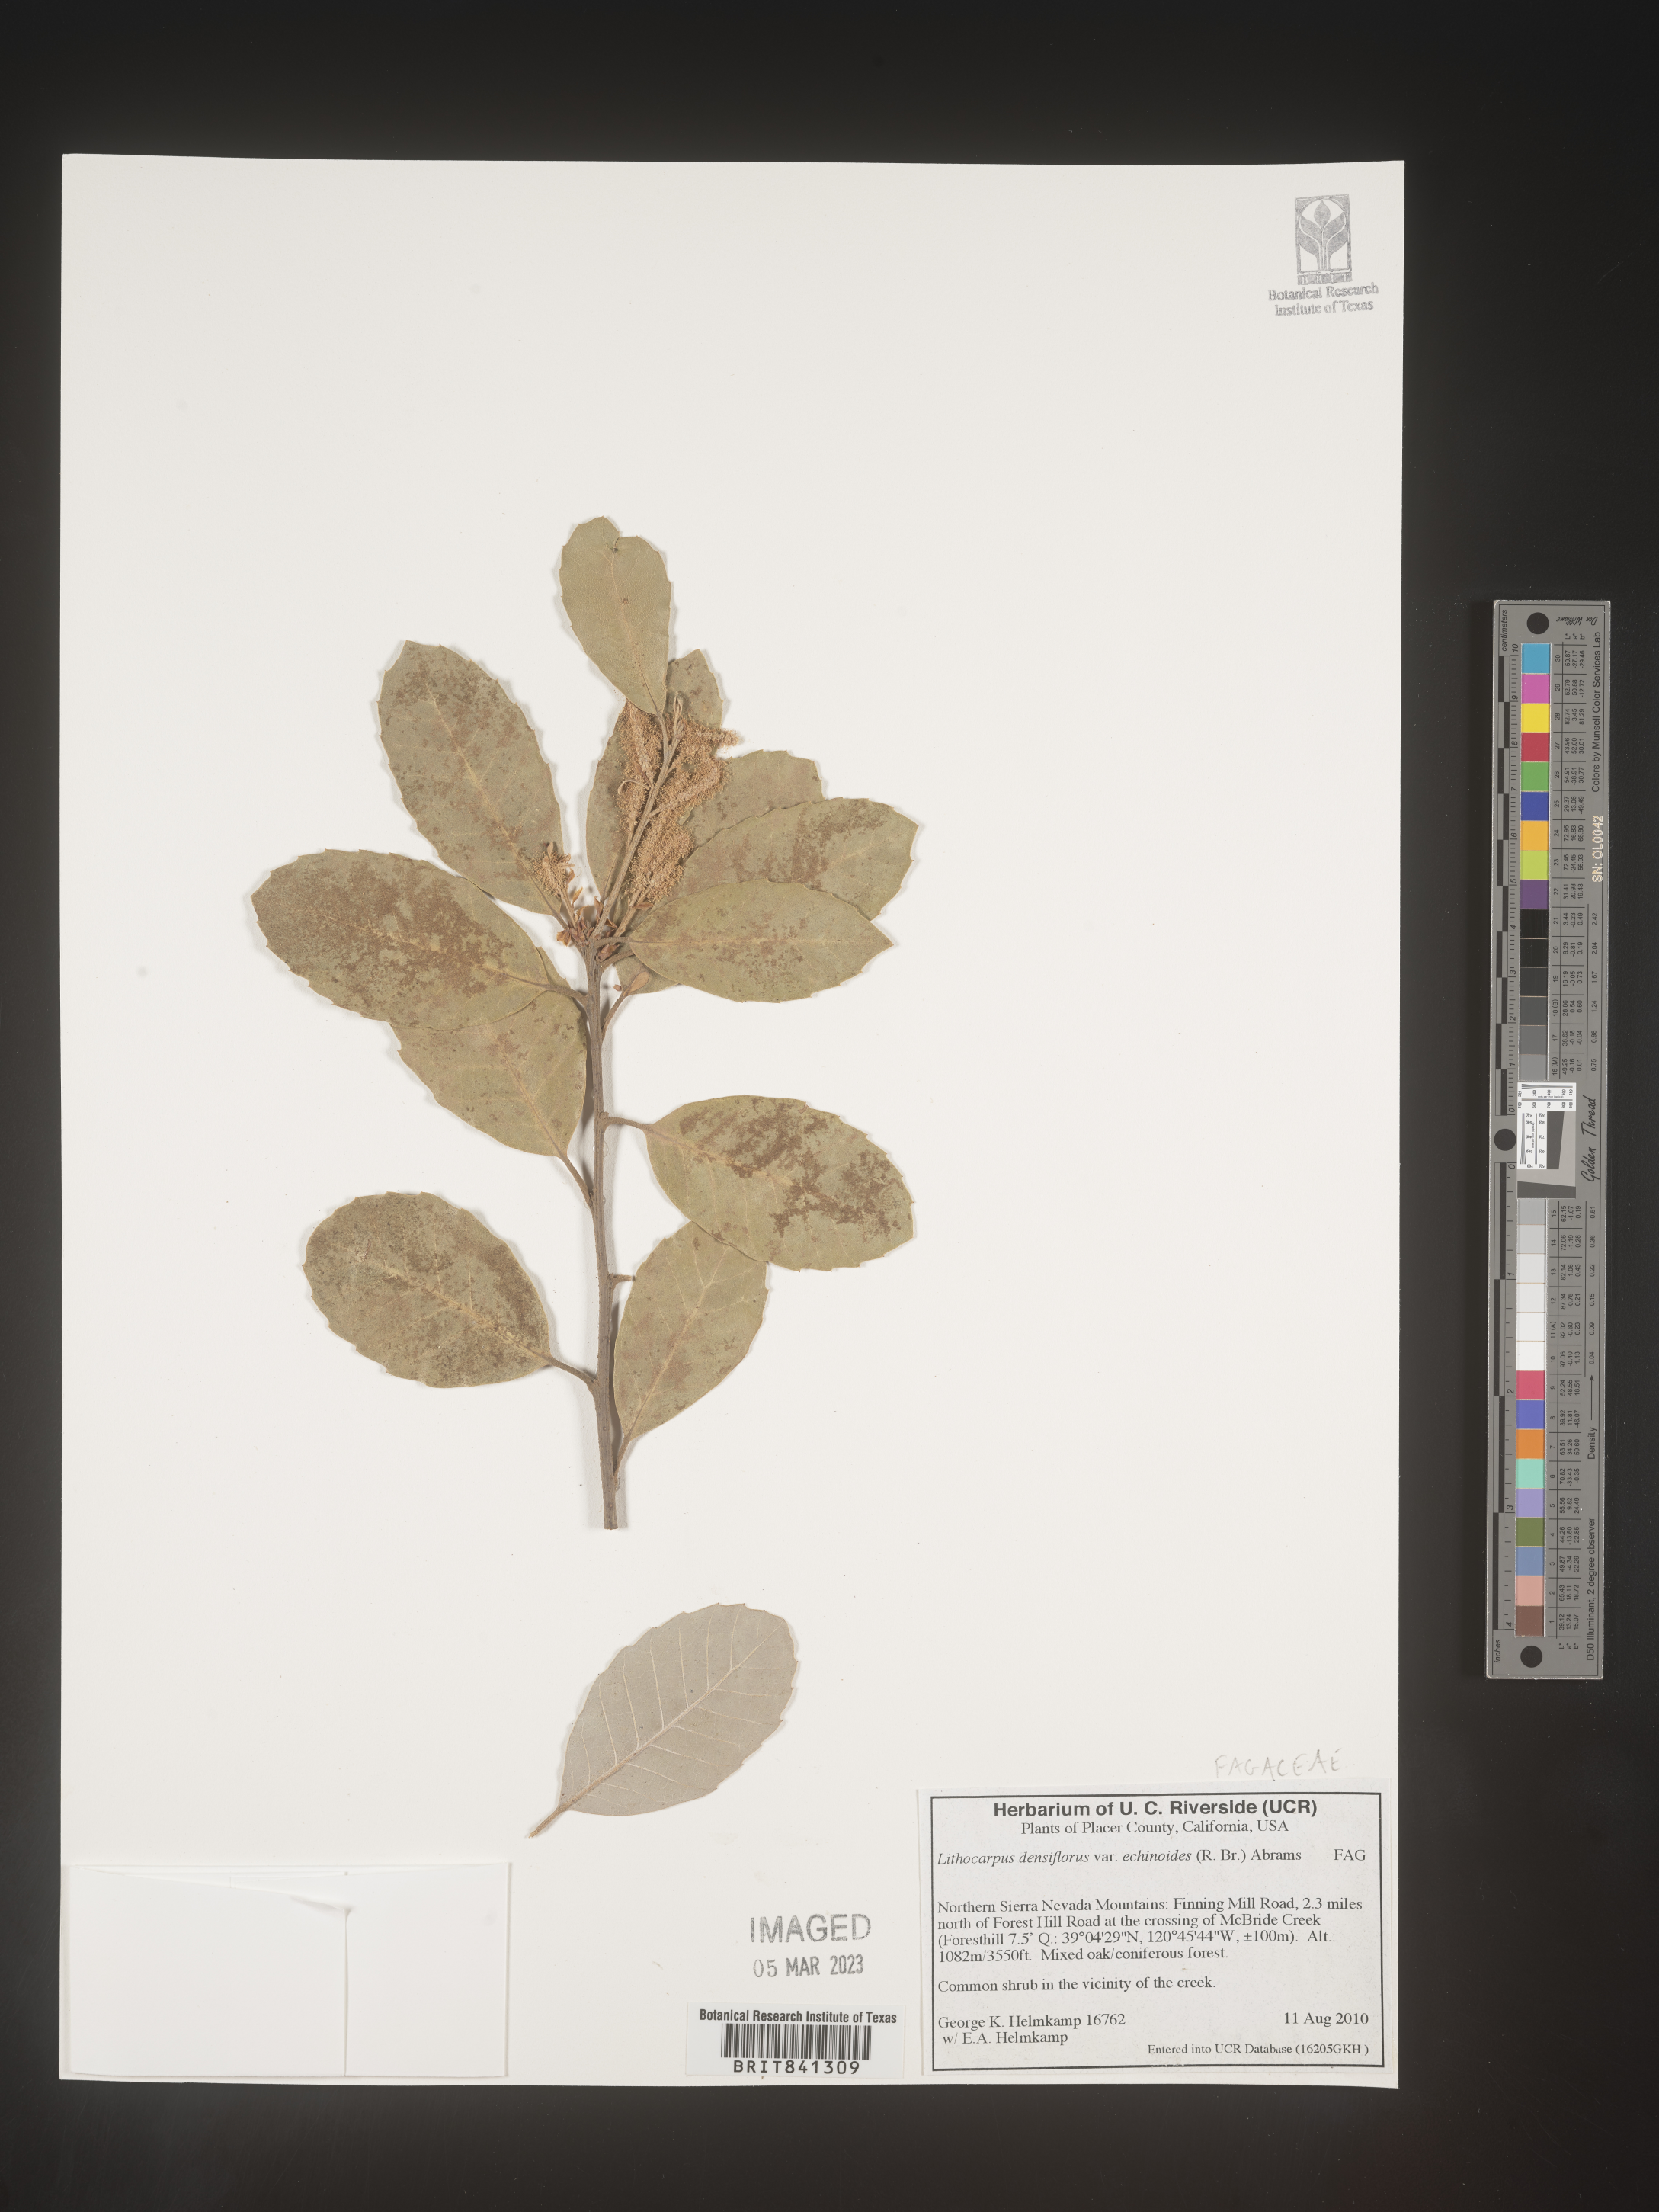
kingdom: Plantae
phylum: Tracheophyta
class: Magnoliopsida
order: Fagales
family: Fagaceae
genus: Notholithocarpus
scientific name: Notholithocarpus densiflorus
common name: Tan bark oak
